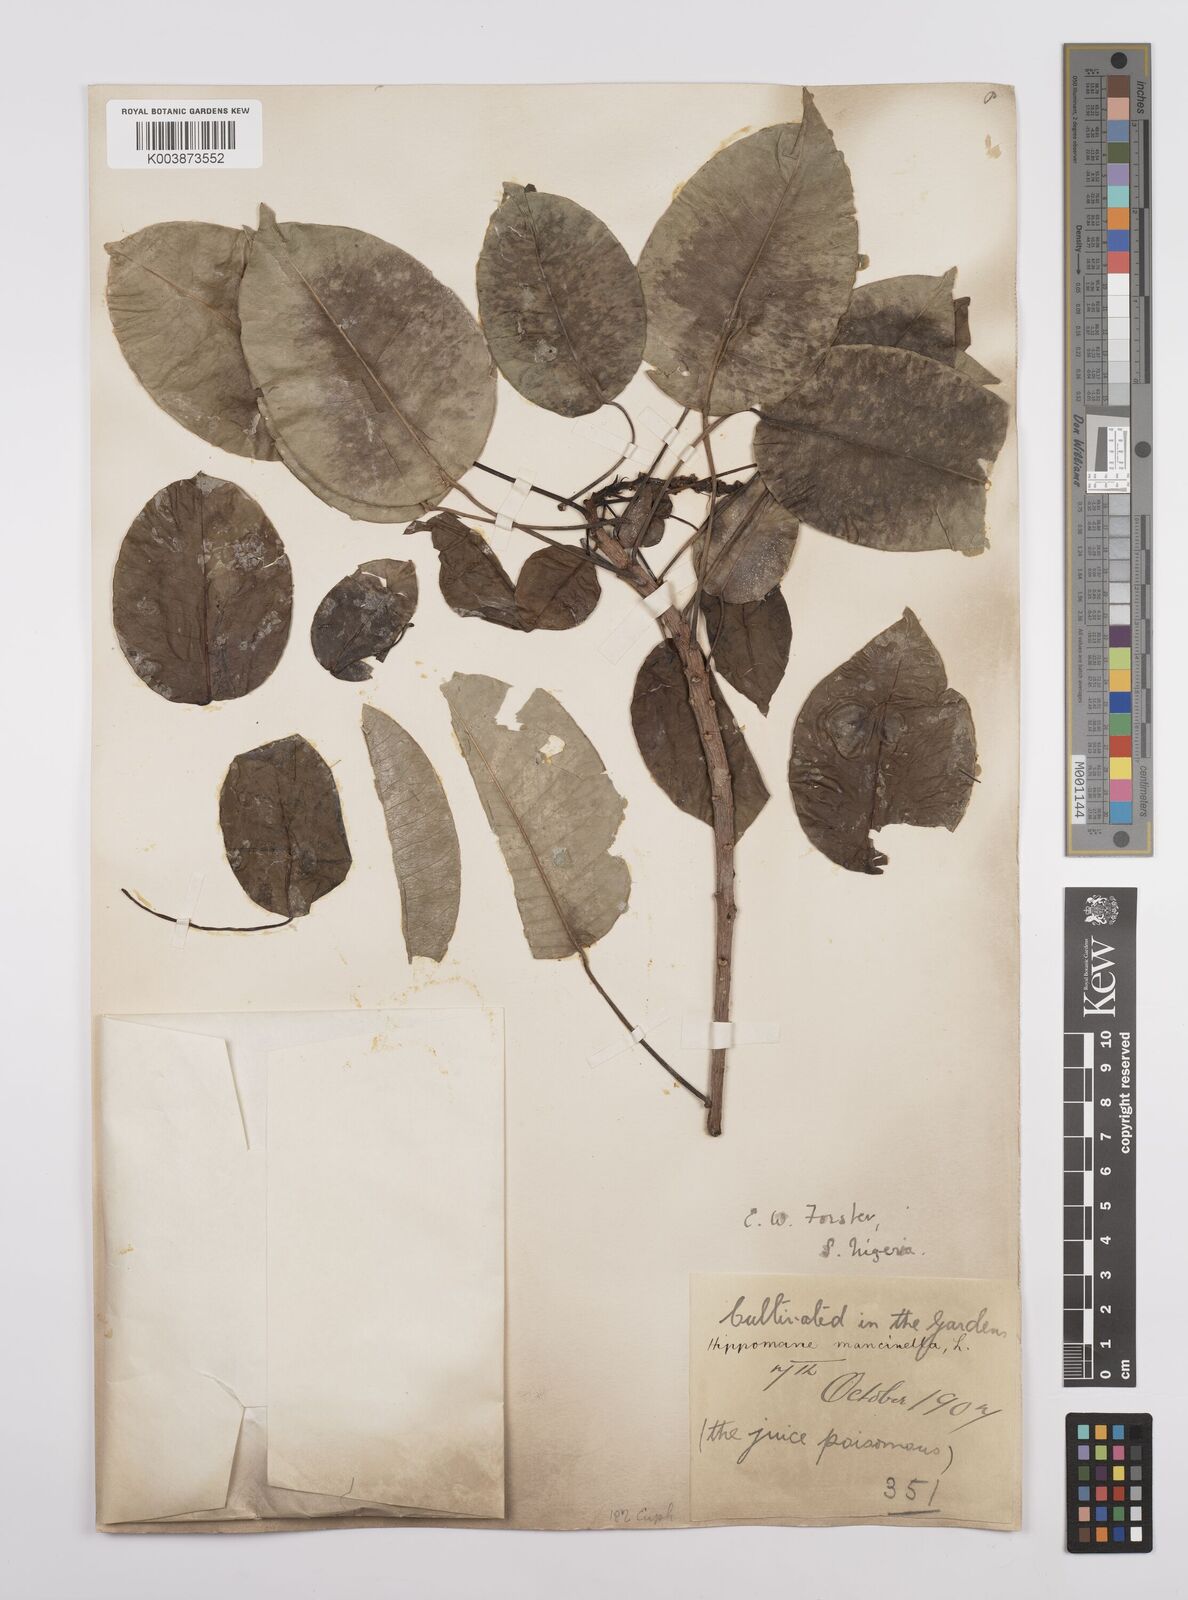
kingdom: Plantae
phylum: Tracheophyta
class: Magnoliopsida
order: Malpighiales
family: Euphorbiaceae
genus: Hippomane
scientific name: Hippomane mancinella
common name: Manchineel
